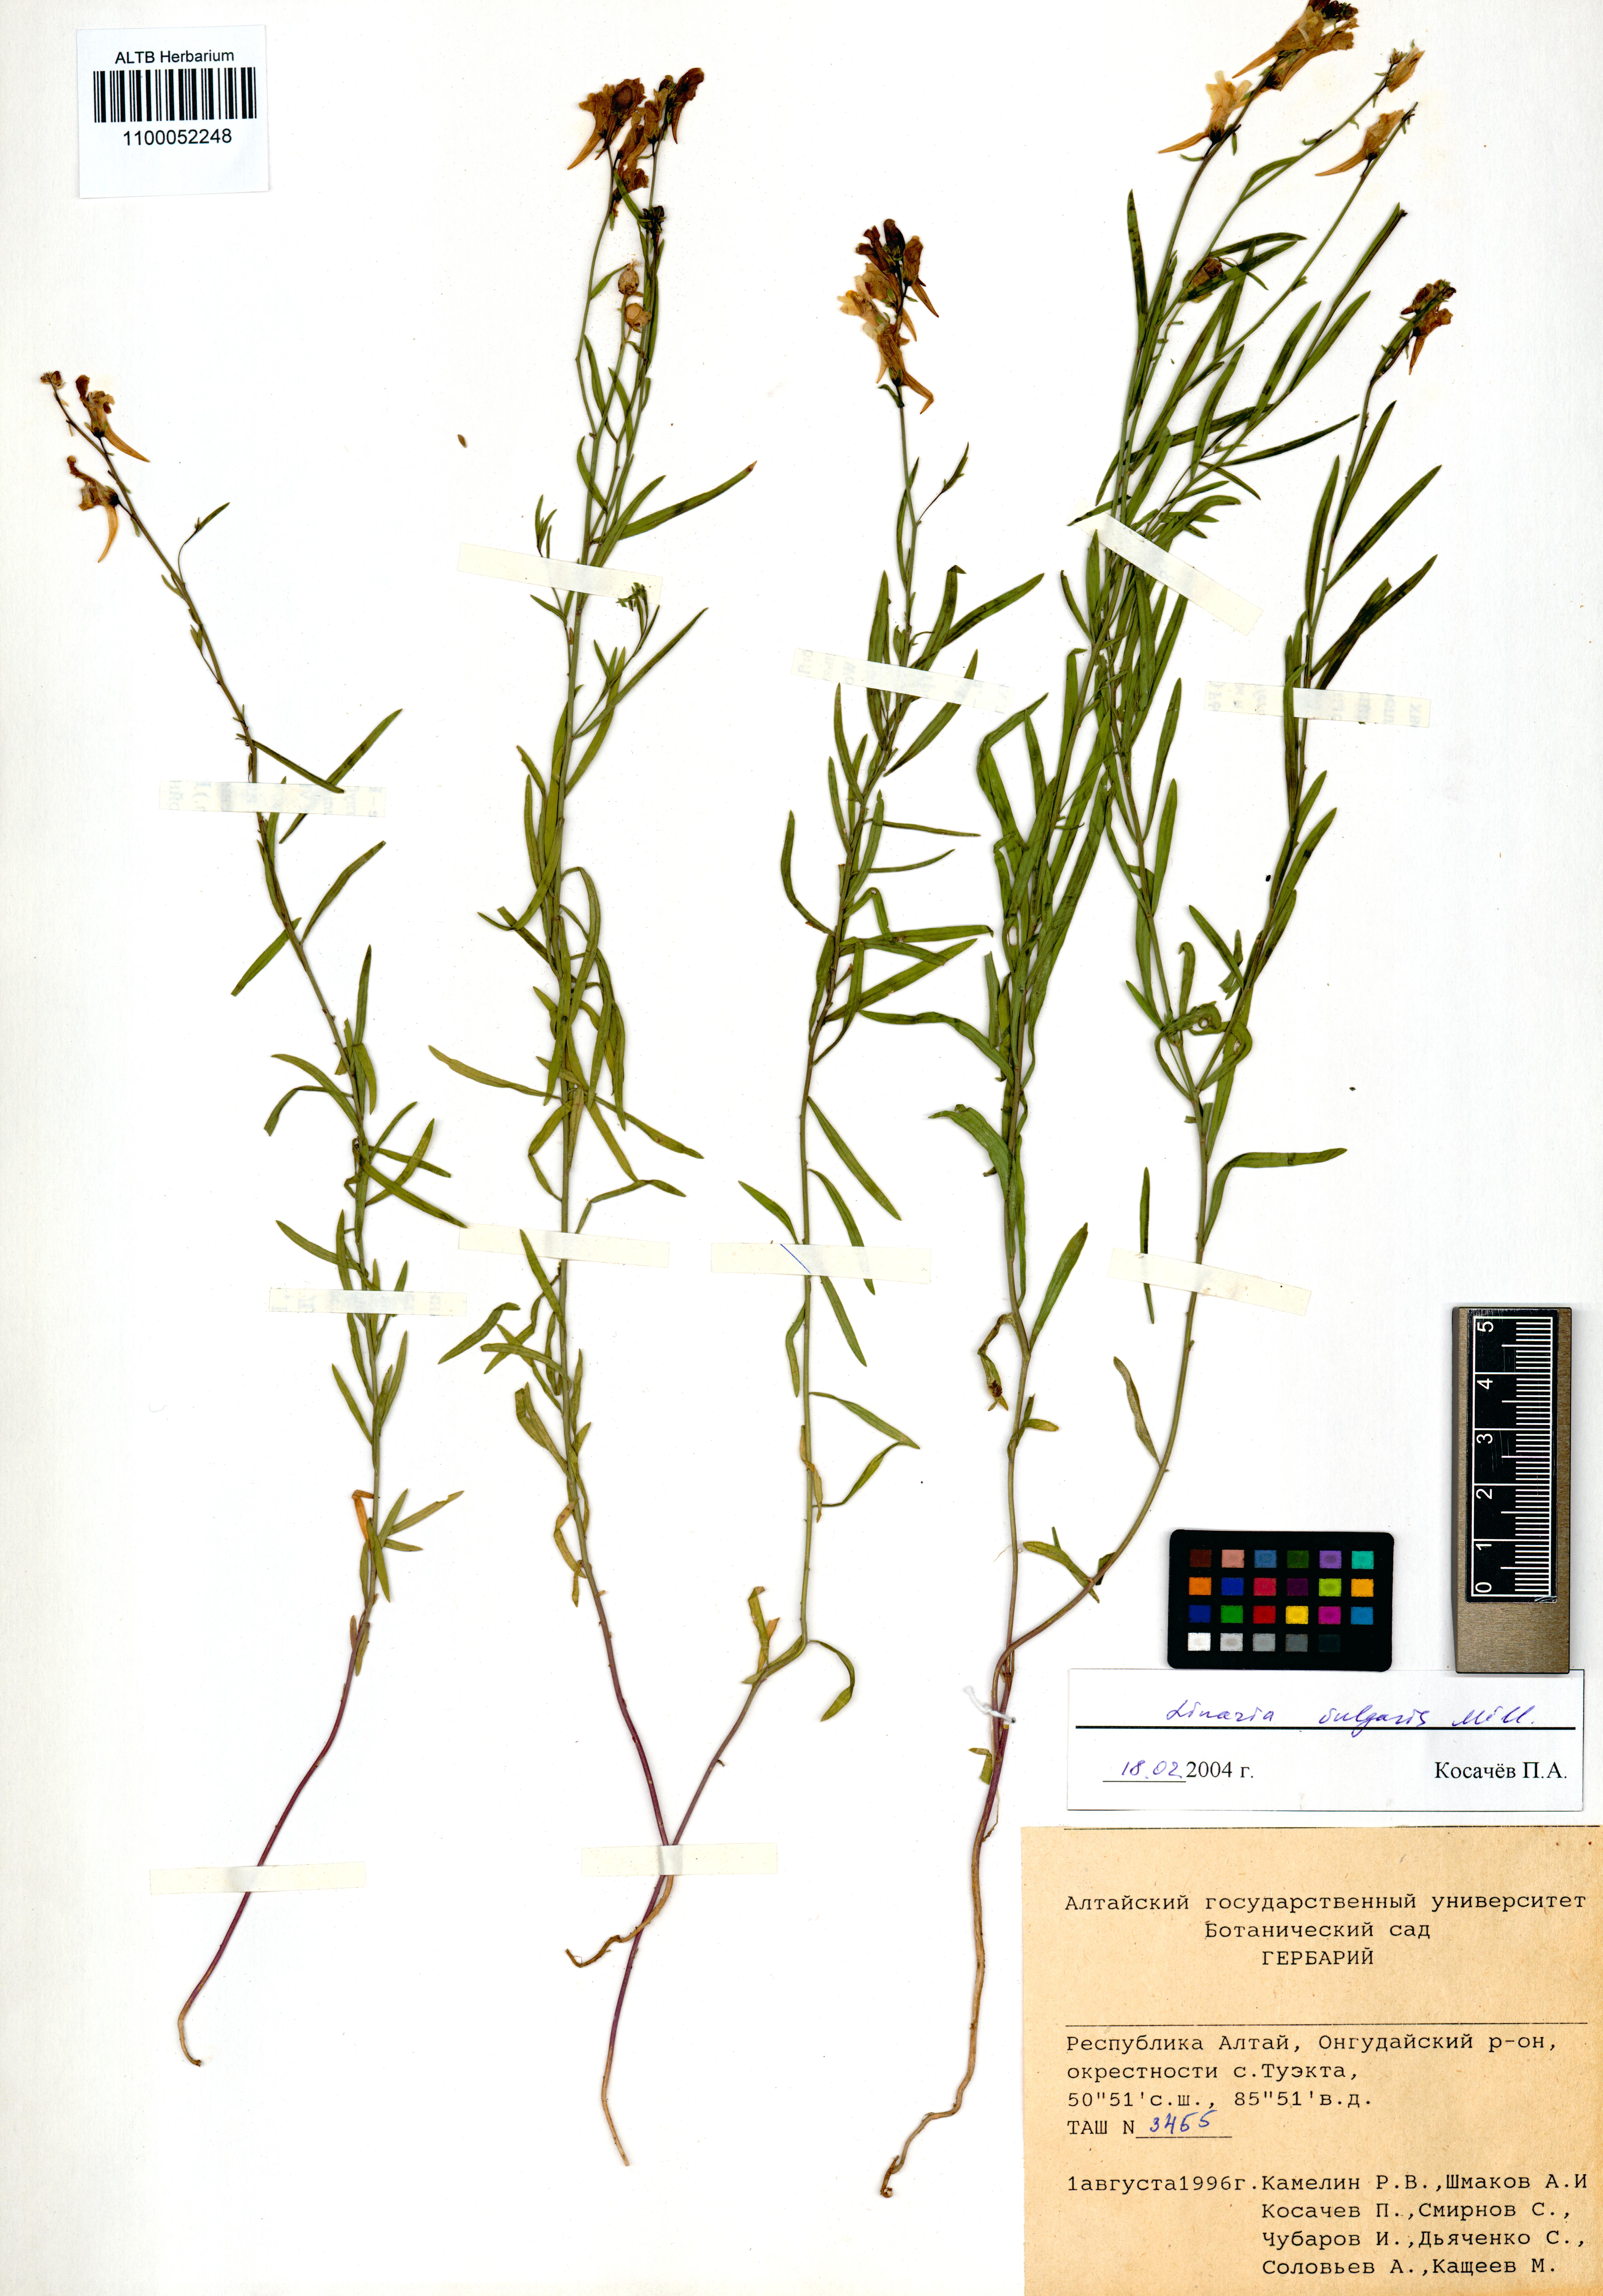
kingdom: Plantae
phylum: Tracheophyta
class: Magnoliopsida
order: Lamiales
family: Plantaginaceae
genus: Linaria
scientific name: Linaria vulgaris
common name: Butter and eggs
